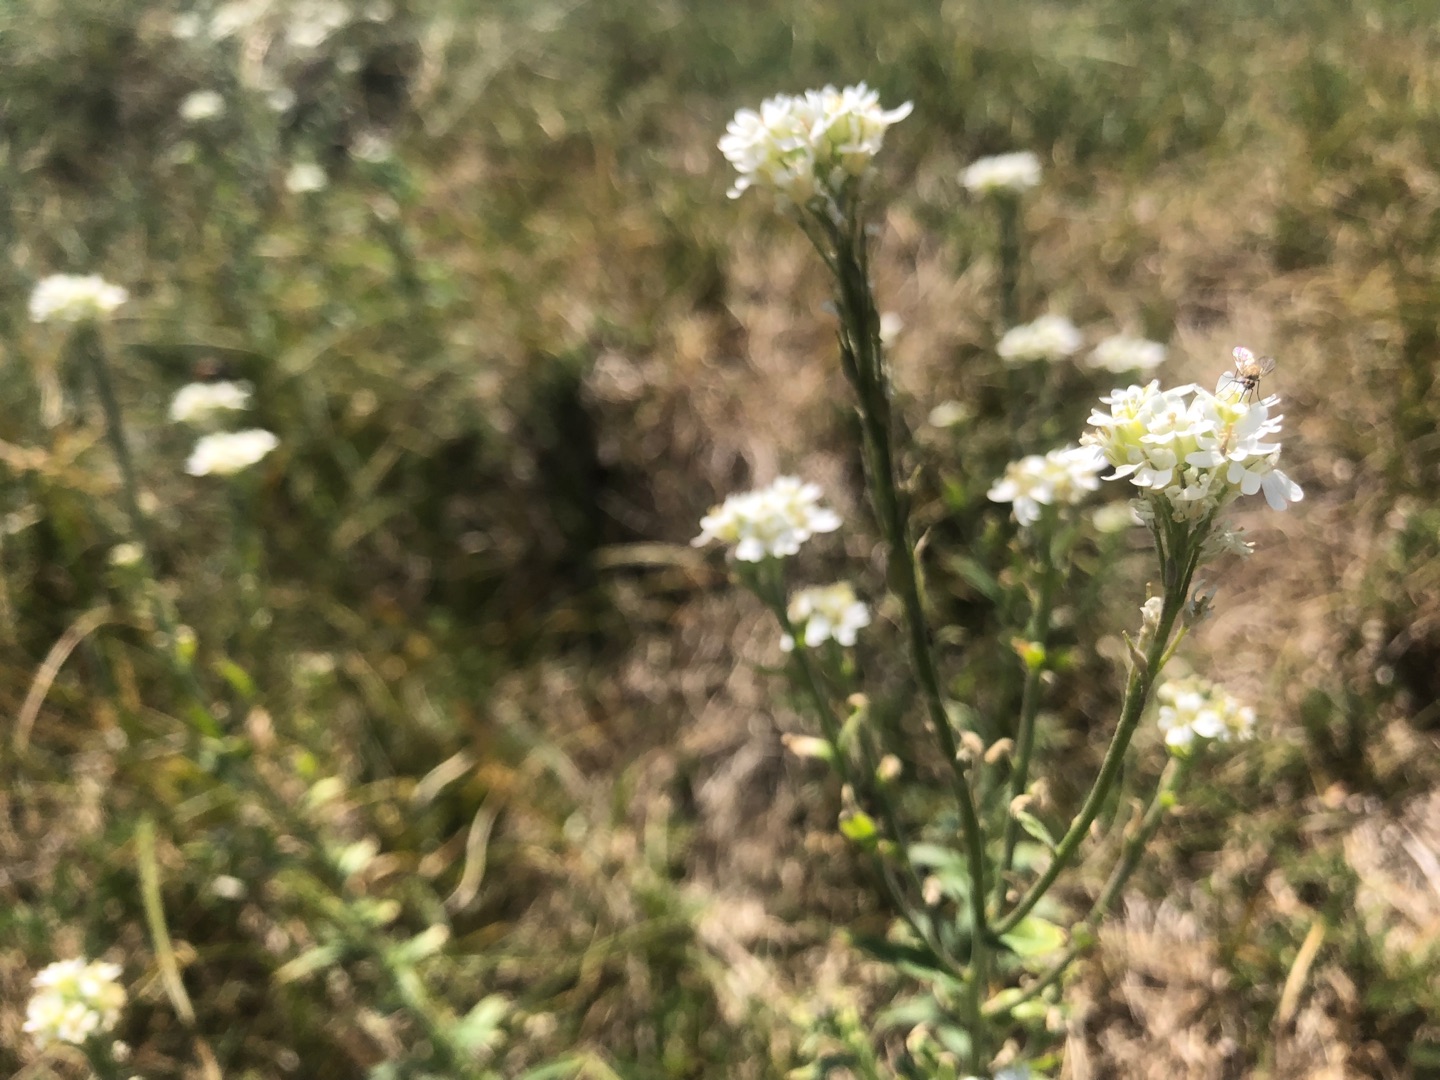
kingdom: Plantae
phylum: Tracheophyta
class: Magnoliopsida
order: Brassicales
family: Brassicaceae
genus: Berteroa
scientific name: Berteroa incana
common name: Kløvplade
